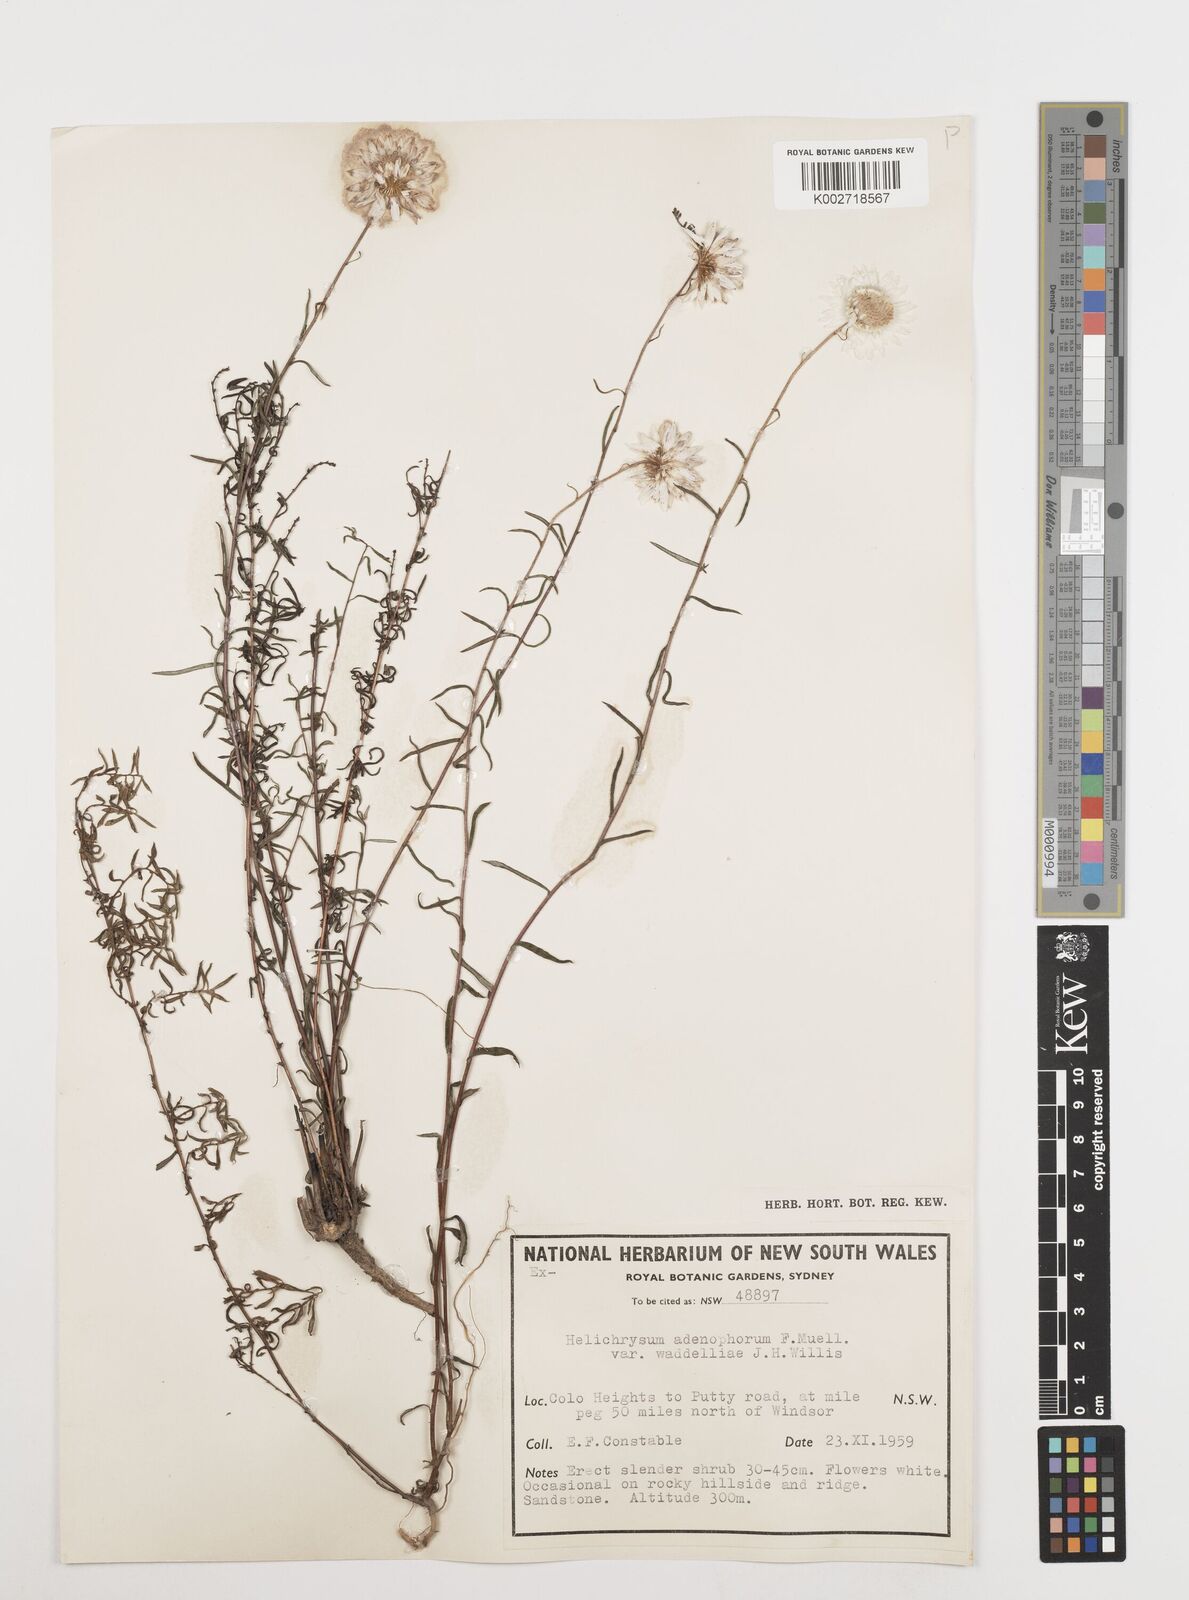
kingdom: Plantae
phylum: Tracheophyta
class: Magnoliopsida
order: Asterales
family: Asteraceae
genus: Coronidium
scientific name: Coronidium adenophorum
